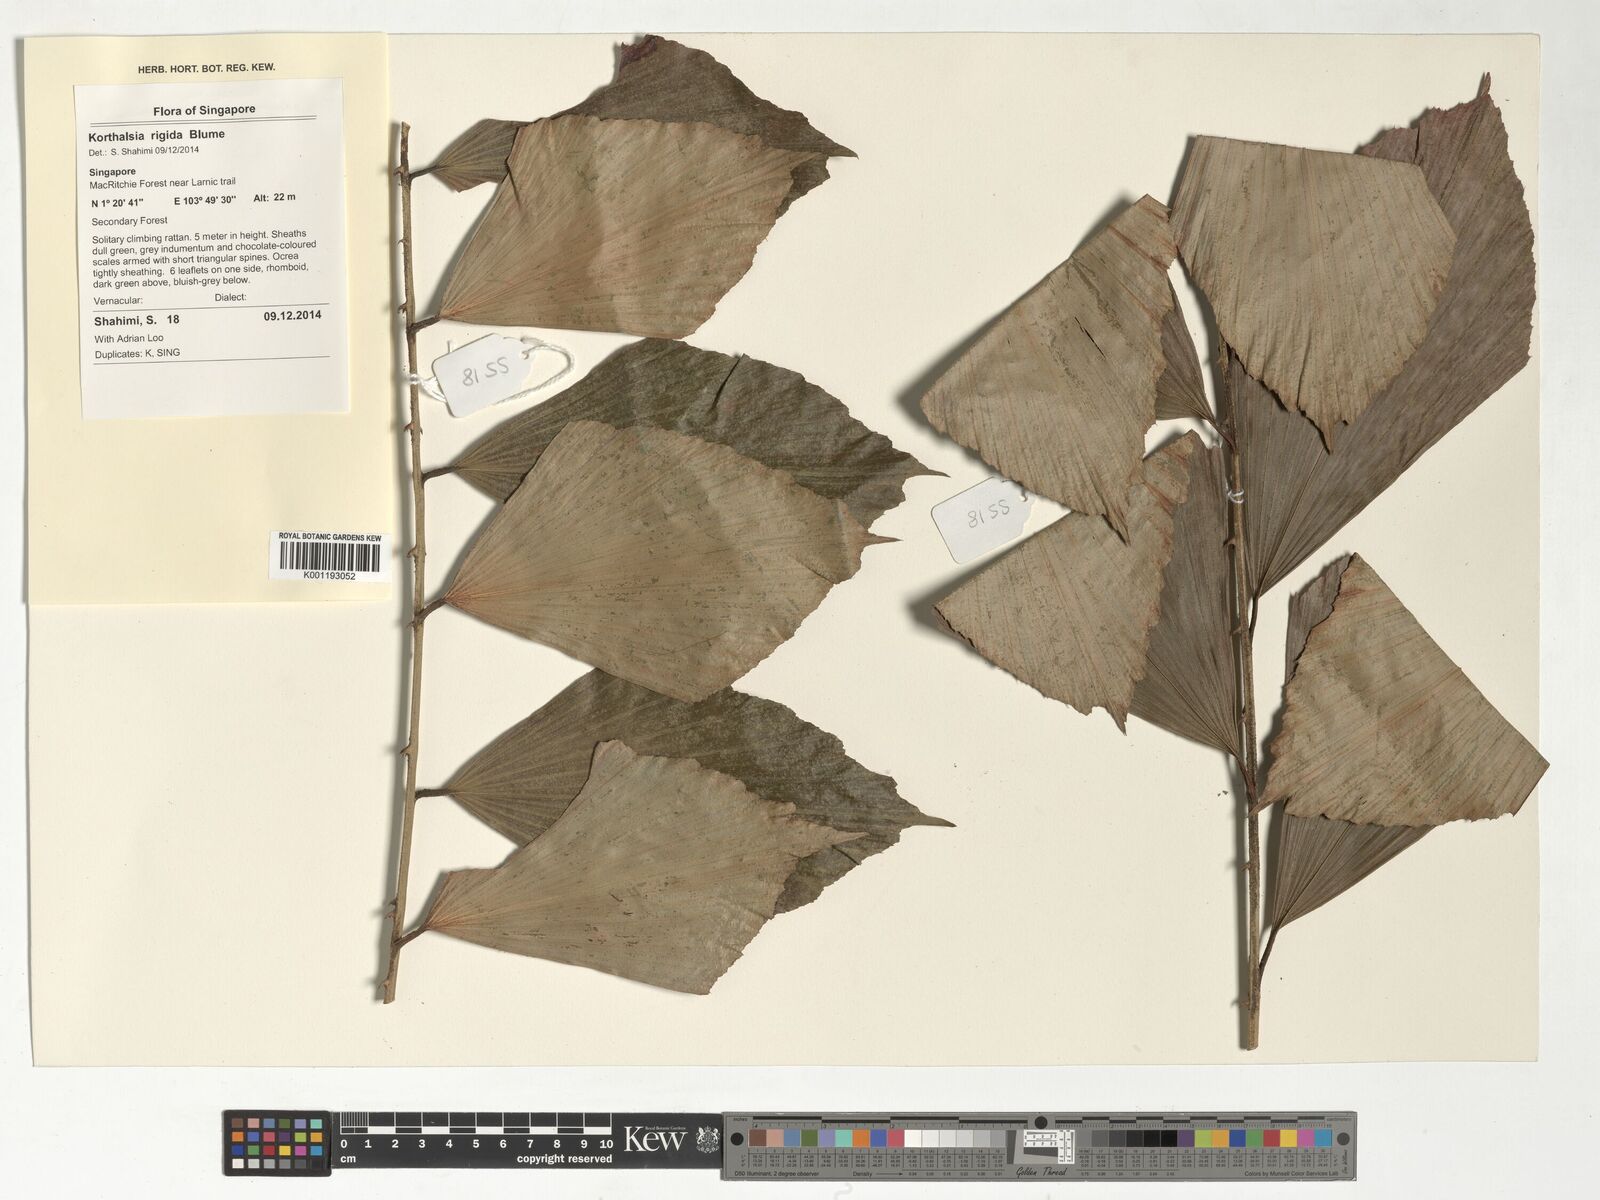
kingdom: Plantae
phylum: Tracheophyta
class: Liliopsida
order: Arecales
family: Arecaceae
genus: Korthalsia
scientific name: Korthalsia rigida
